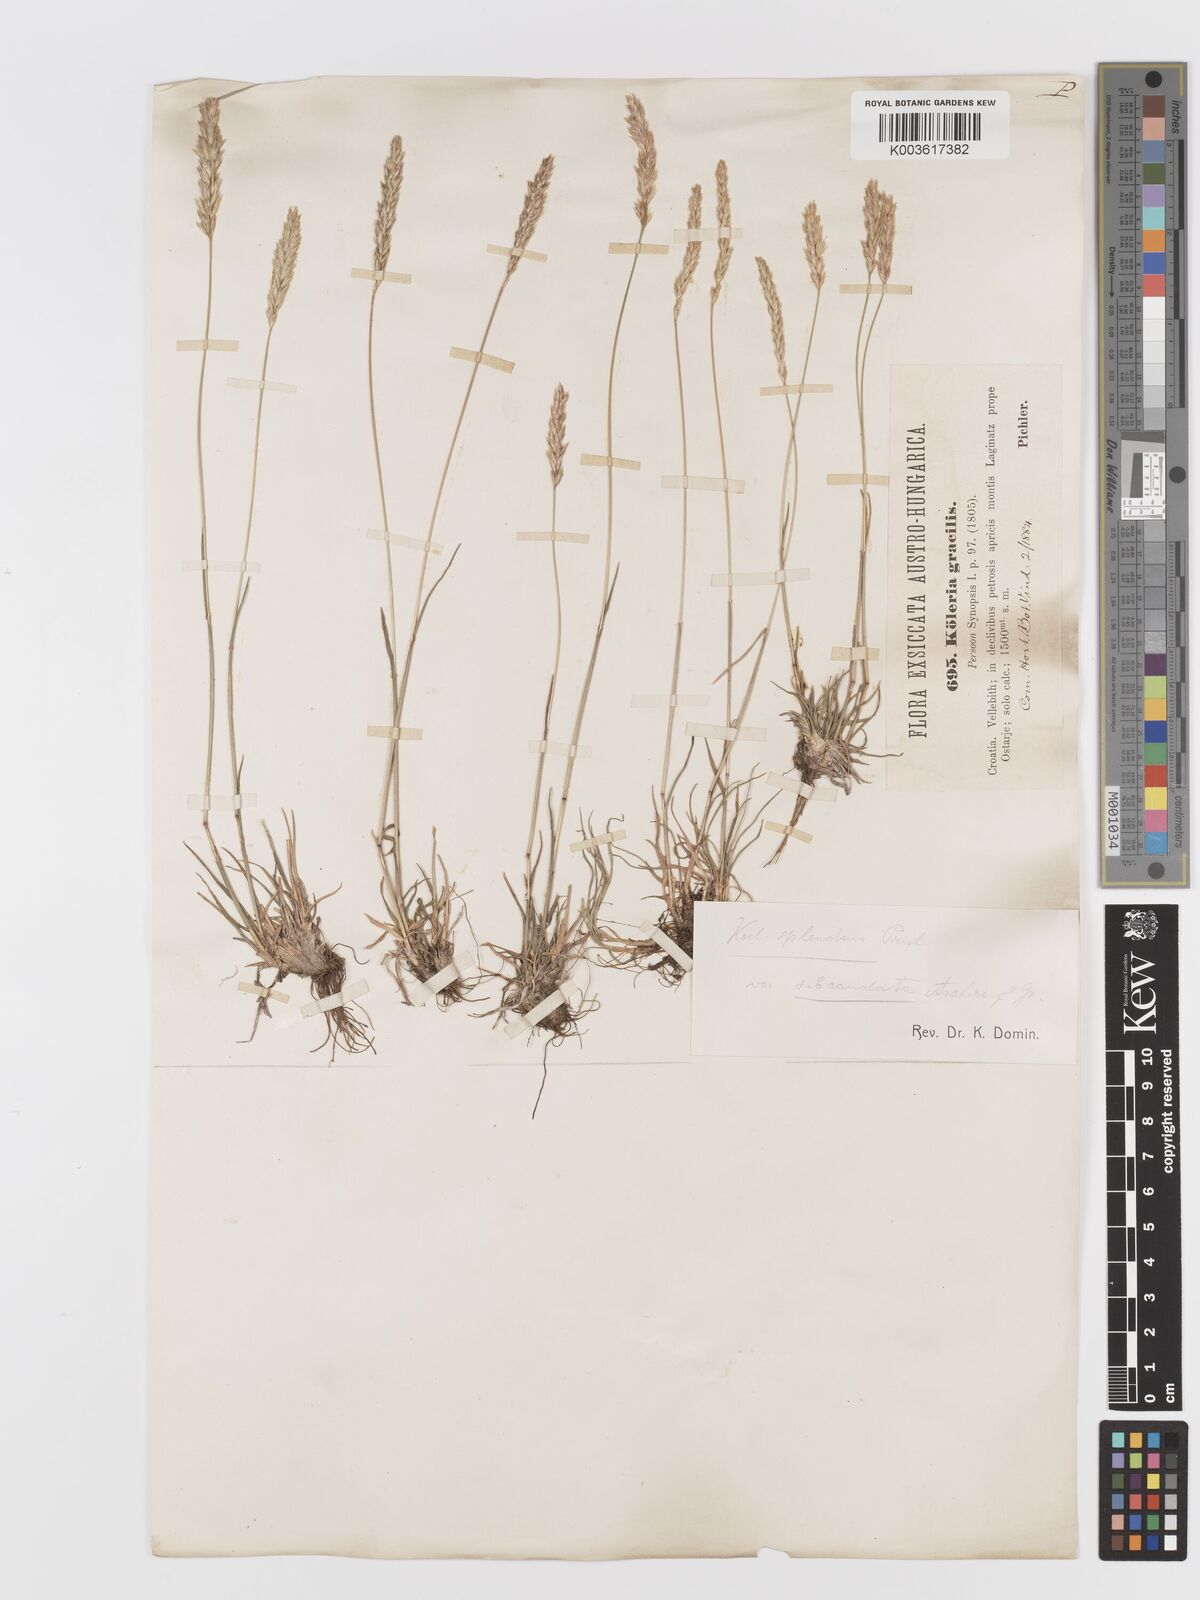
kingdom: Plantae
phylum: Tracheophyta
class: Liliopsida
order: Poales
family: Poaceae
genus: Koeleria
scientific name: Koeleria splendens
